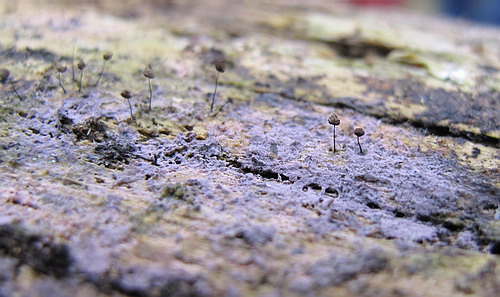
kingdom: Fungi
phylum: Basidiomycota
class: Agaricomycetes
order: Cantharellales
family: Tulasnellaceae
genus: Tulasnella
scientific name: Tulasnella violea
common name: violet ballonhinde
